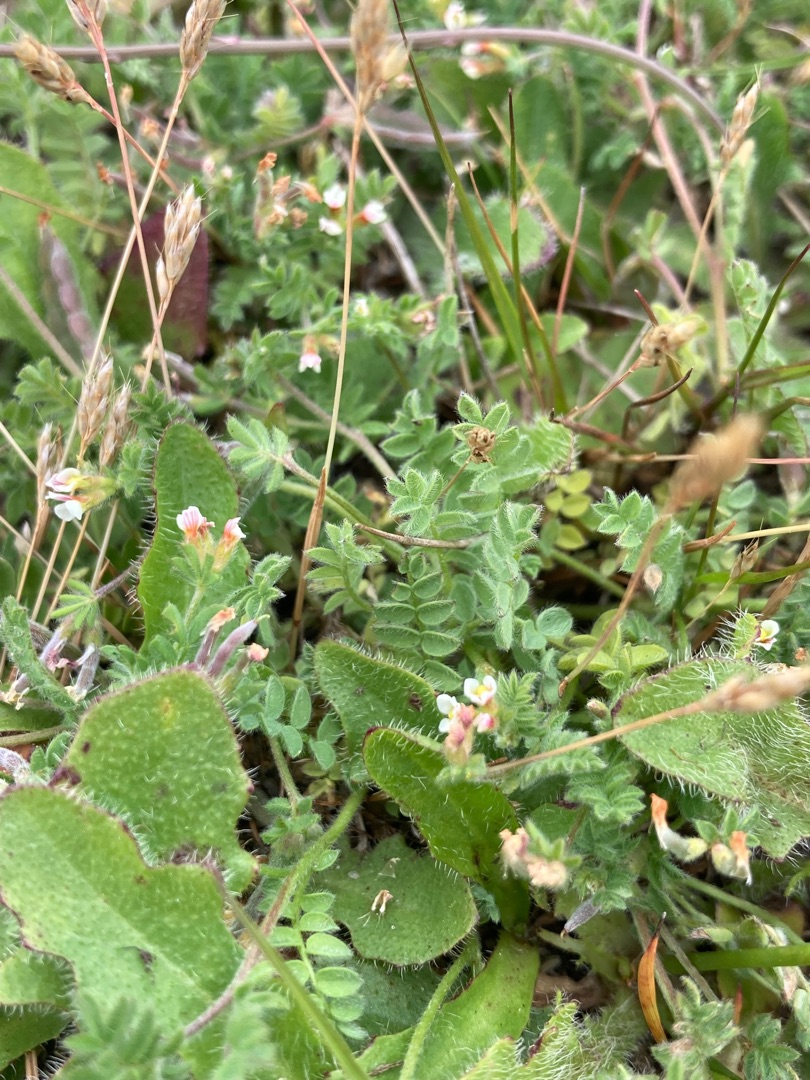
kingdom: Plantae
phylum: Tracheophyta
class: Magnoliopsida
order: Fabales
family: Fabaceae
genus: Ornithopus
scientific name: Ornithopus perpusillus
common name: Liden fugleklo
